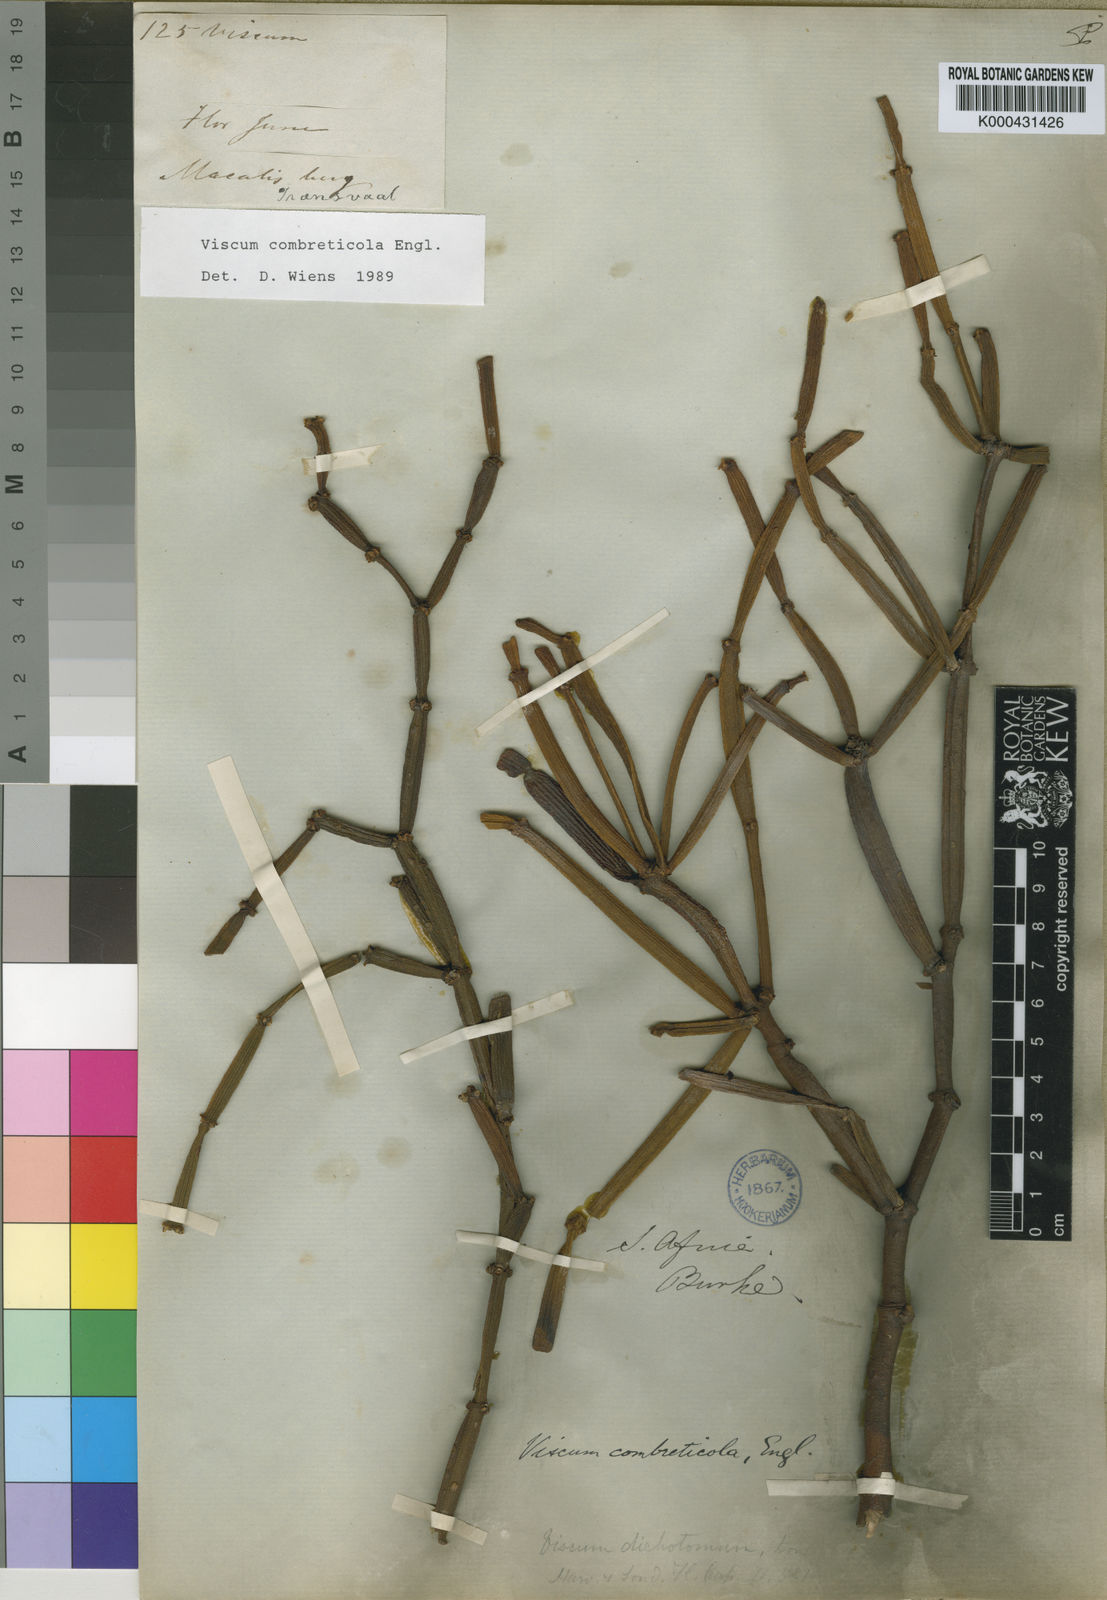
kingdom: Plantae
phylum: Tracheophyta
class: Magnoliopsida
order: Santalales
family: Viscaceae
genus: Viscum
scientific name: Viscum combreticola
